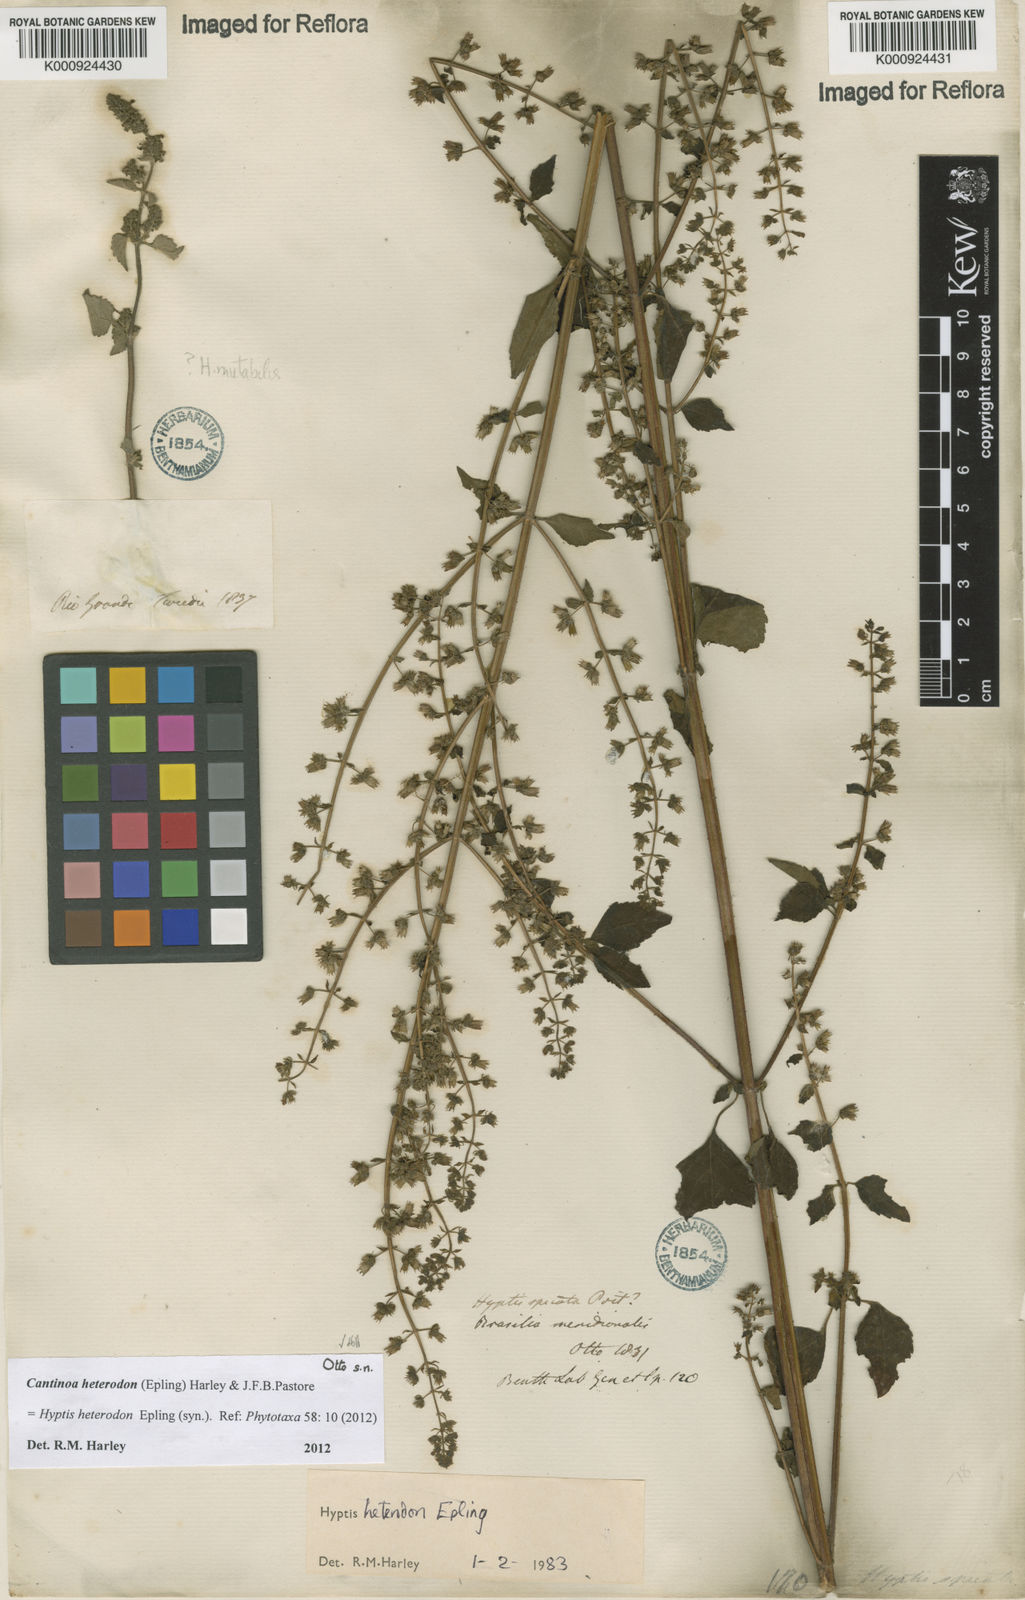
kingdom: Plantae
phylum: Tracheophyta
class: Magnoliopsida
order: Lamiales
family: Lamiaceae
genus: Cantinoa
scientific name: Cantinoa heterodon
